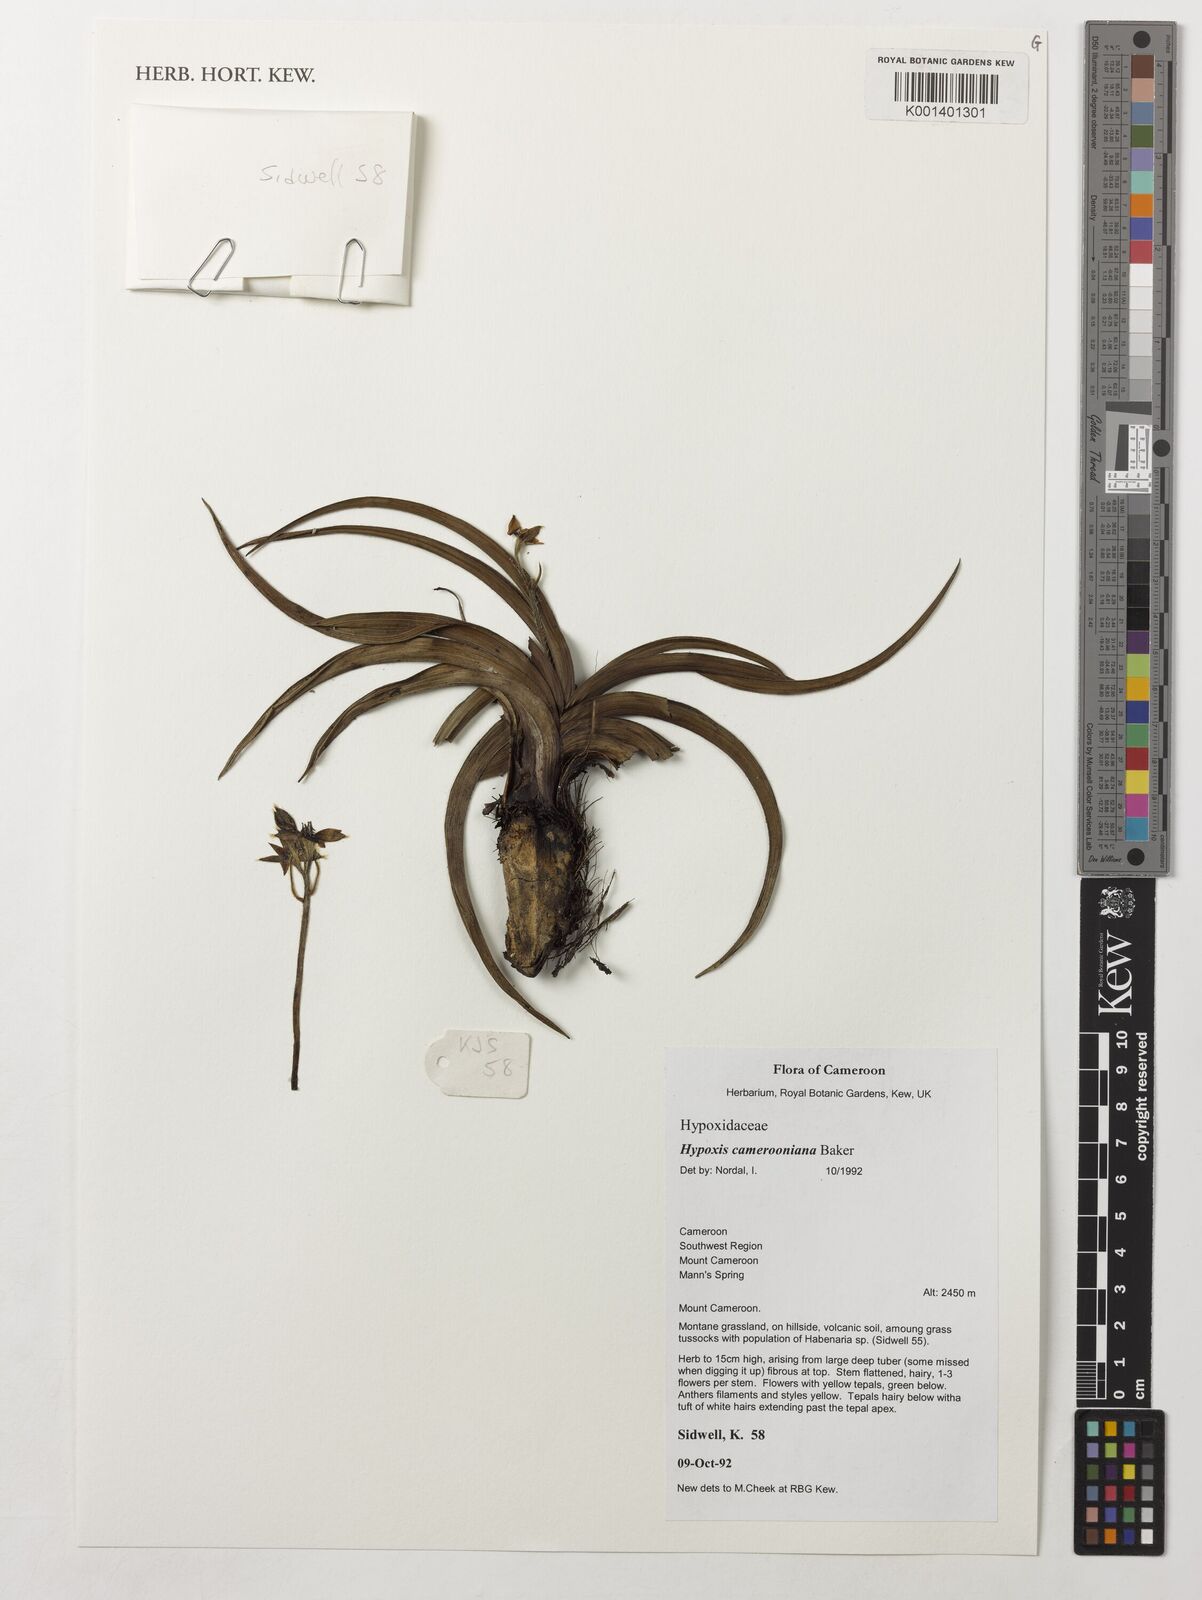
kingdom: Plantae
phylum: Tracheophyta
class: Liliopsida
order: Asparagales
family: Hypoxidaceae
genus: Hypoxis
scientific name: Hypoxis camerooniana
